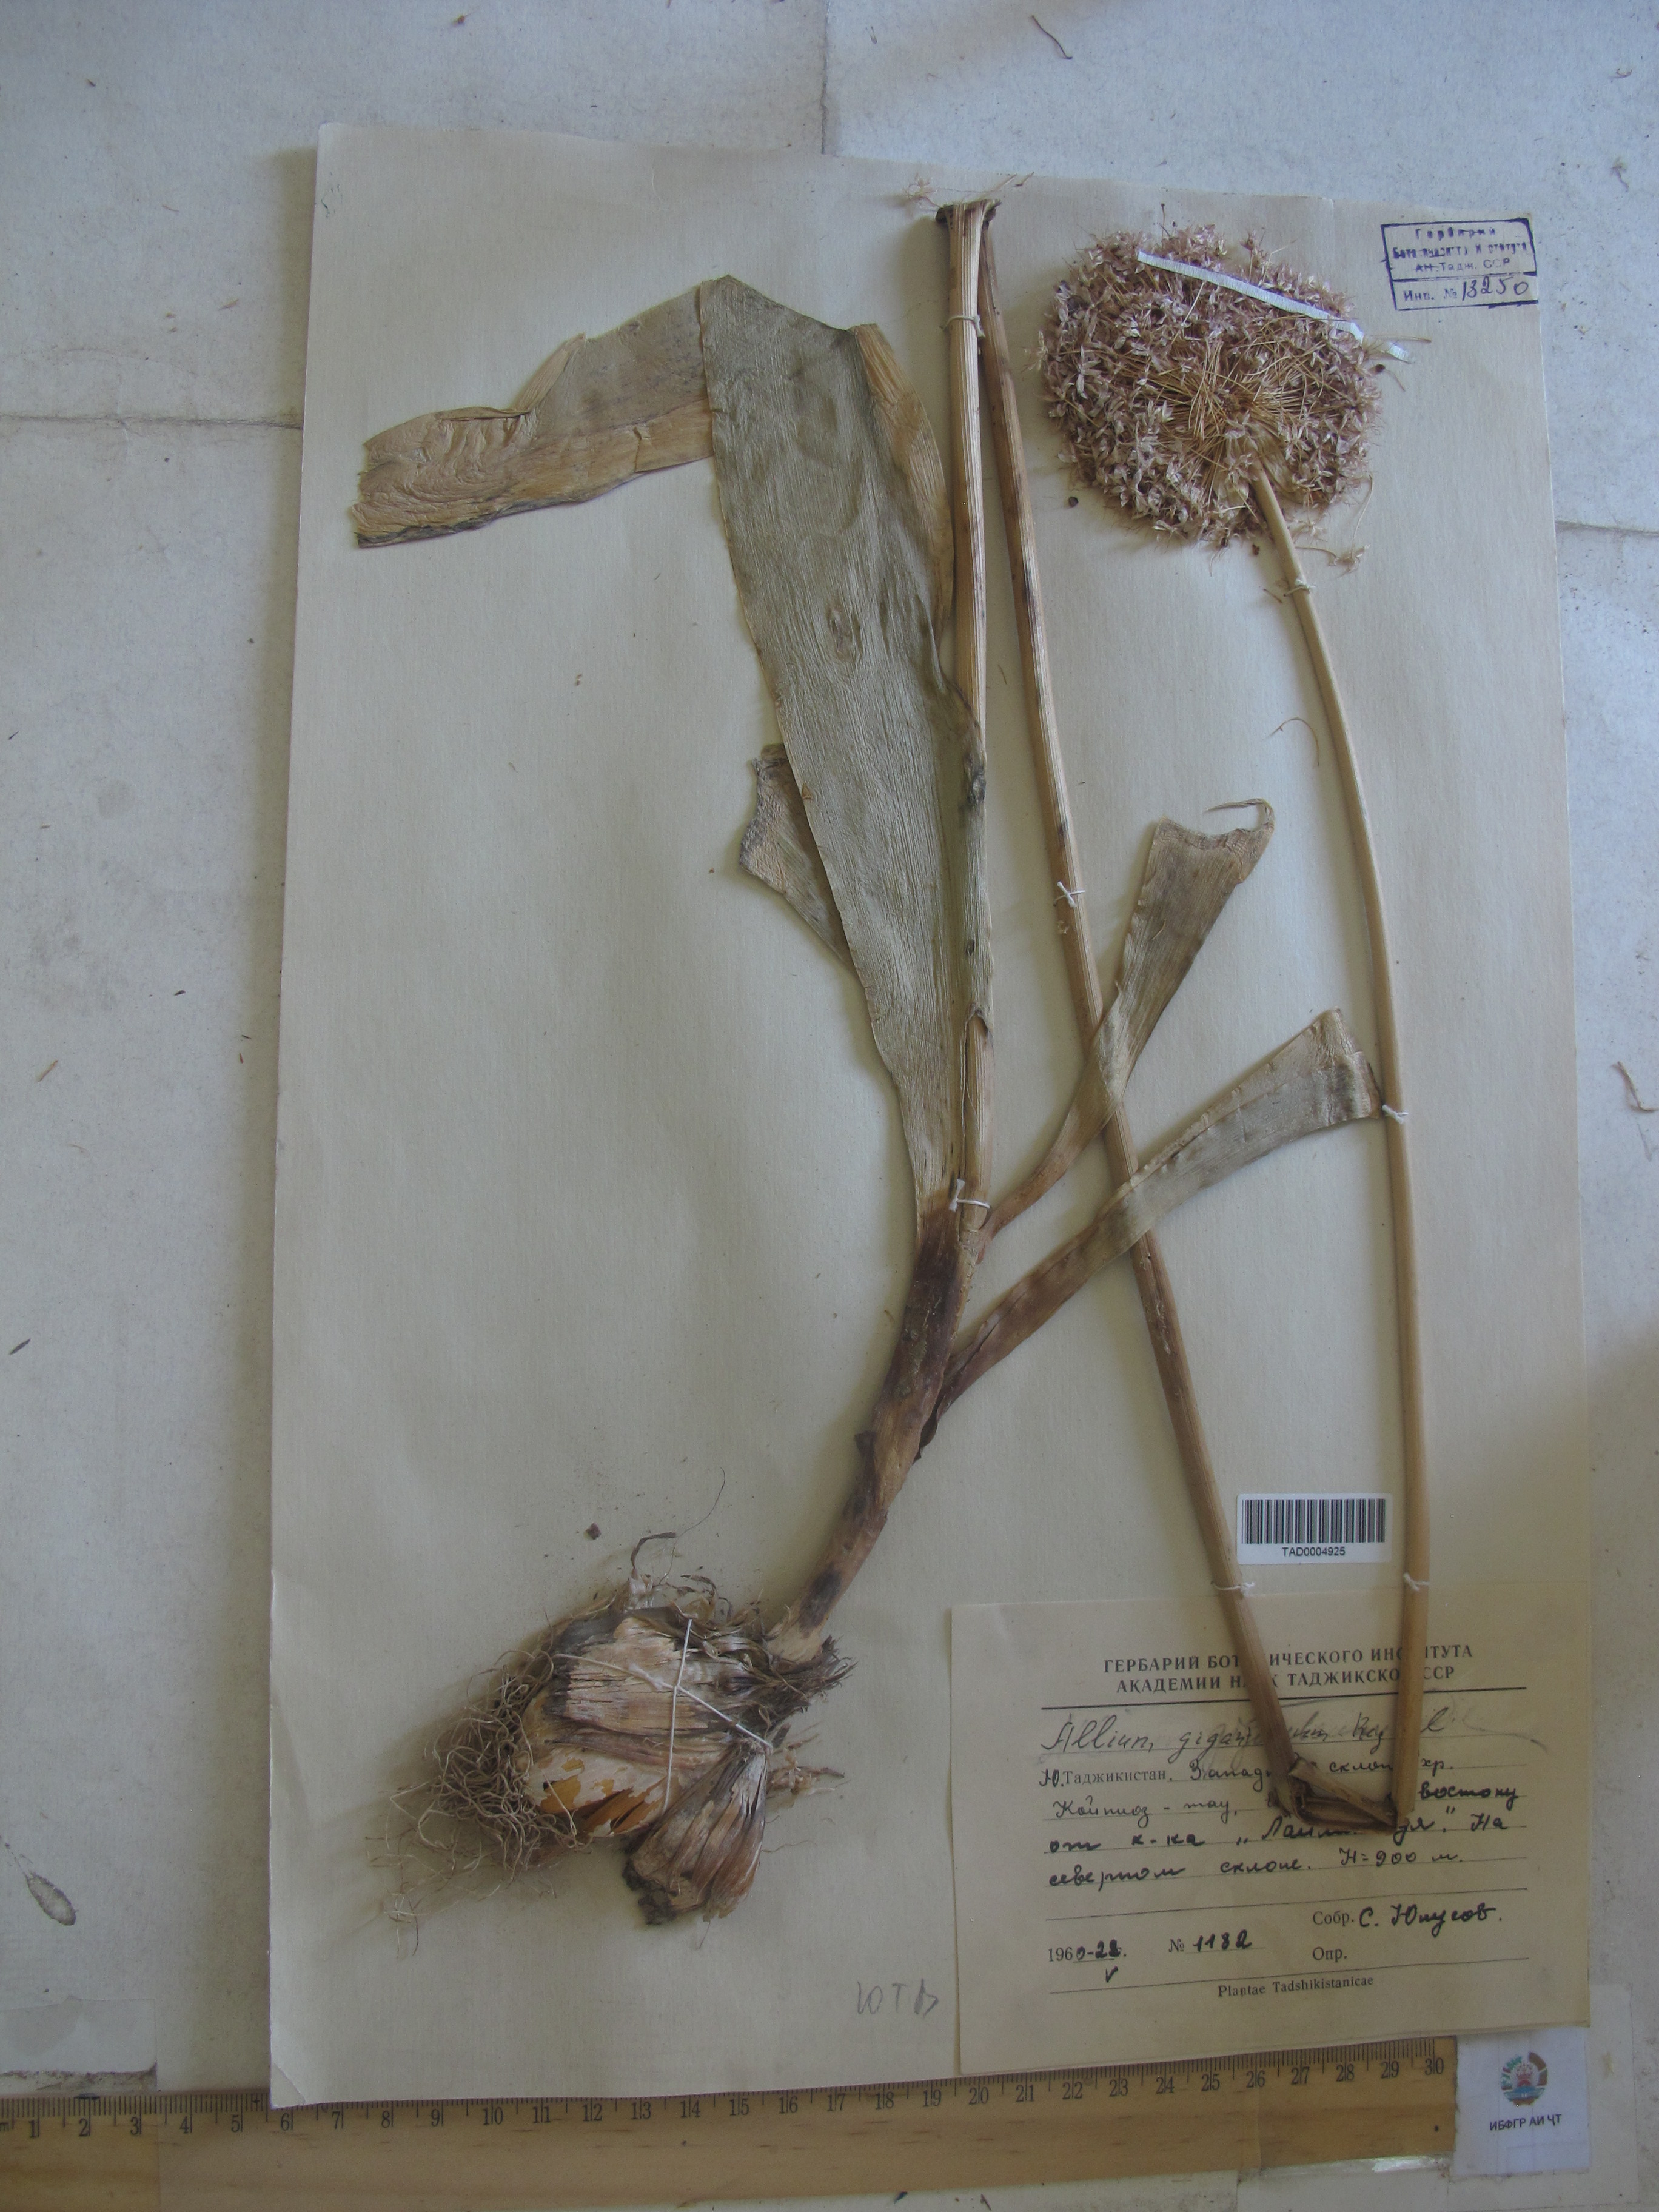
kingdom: Plantae
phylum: Tracheophyta
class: Liliopsida
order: Asparagales
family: Amaryllidaceae
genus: Allium
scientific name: Allium giganteum
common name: Giant onion
